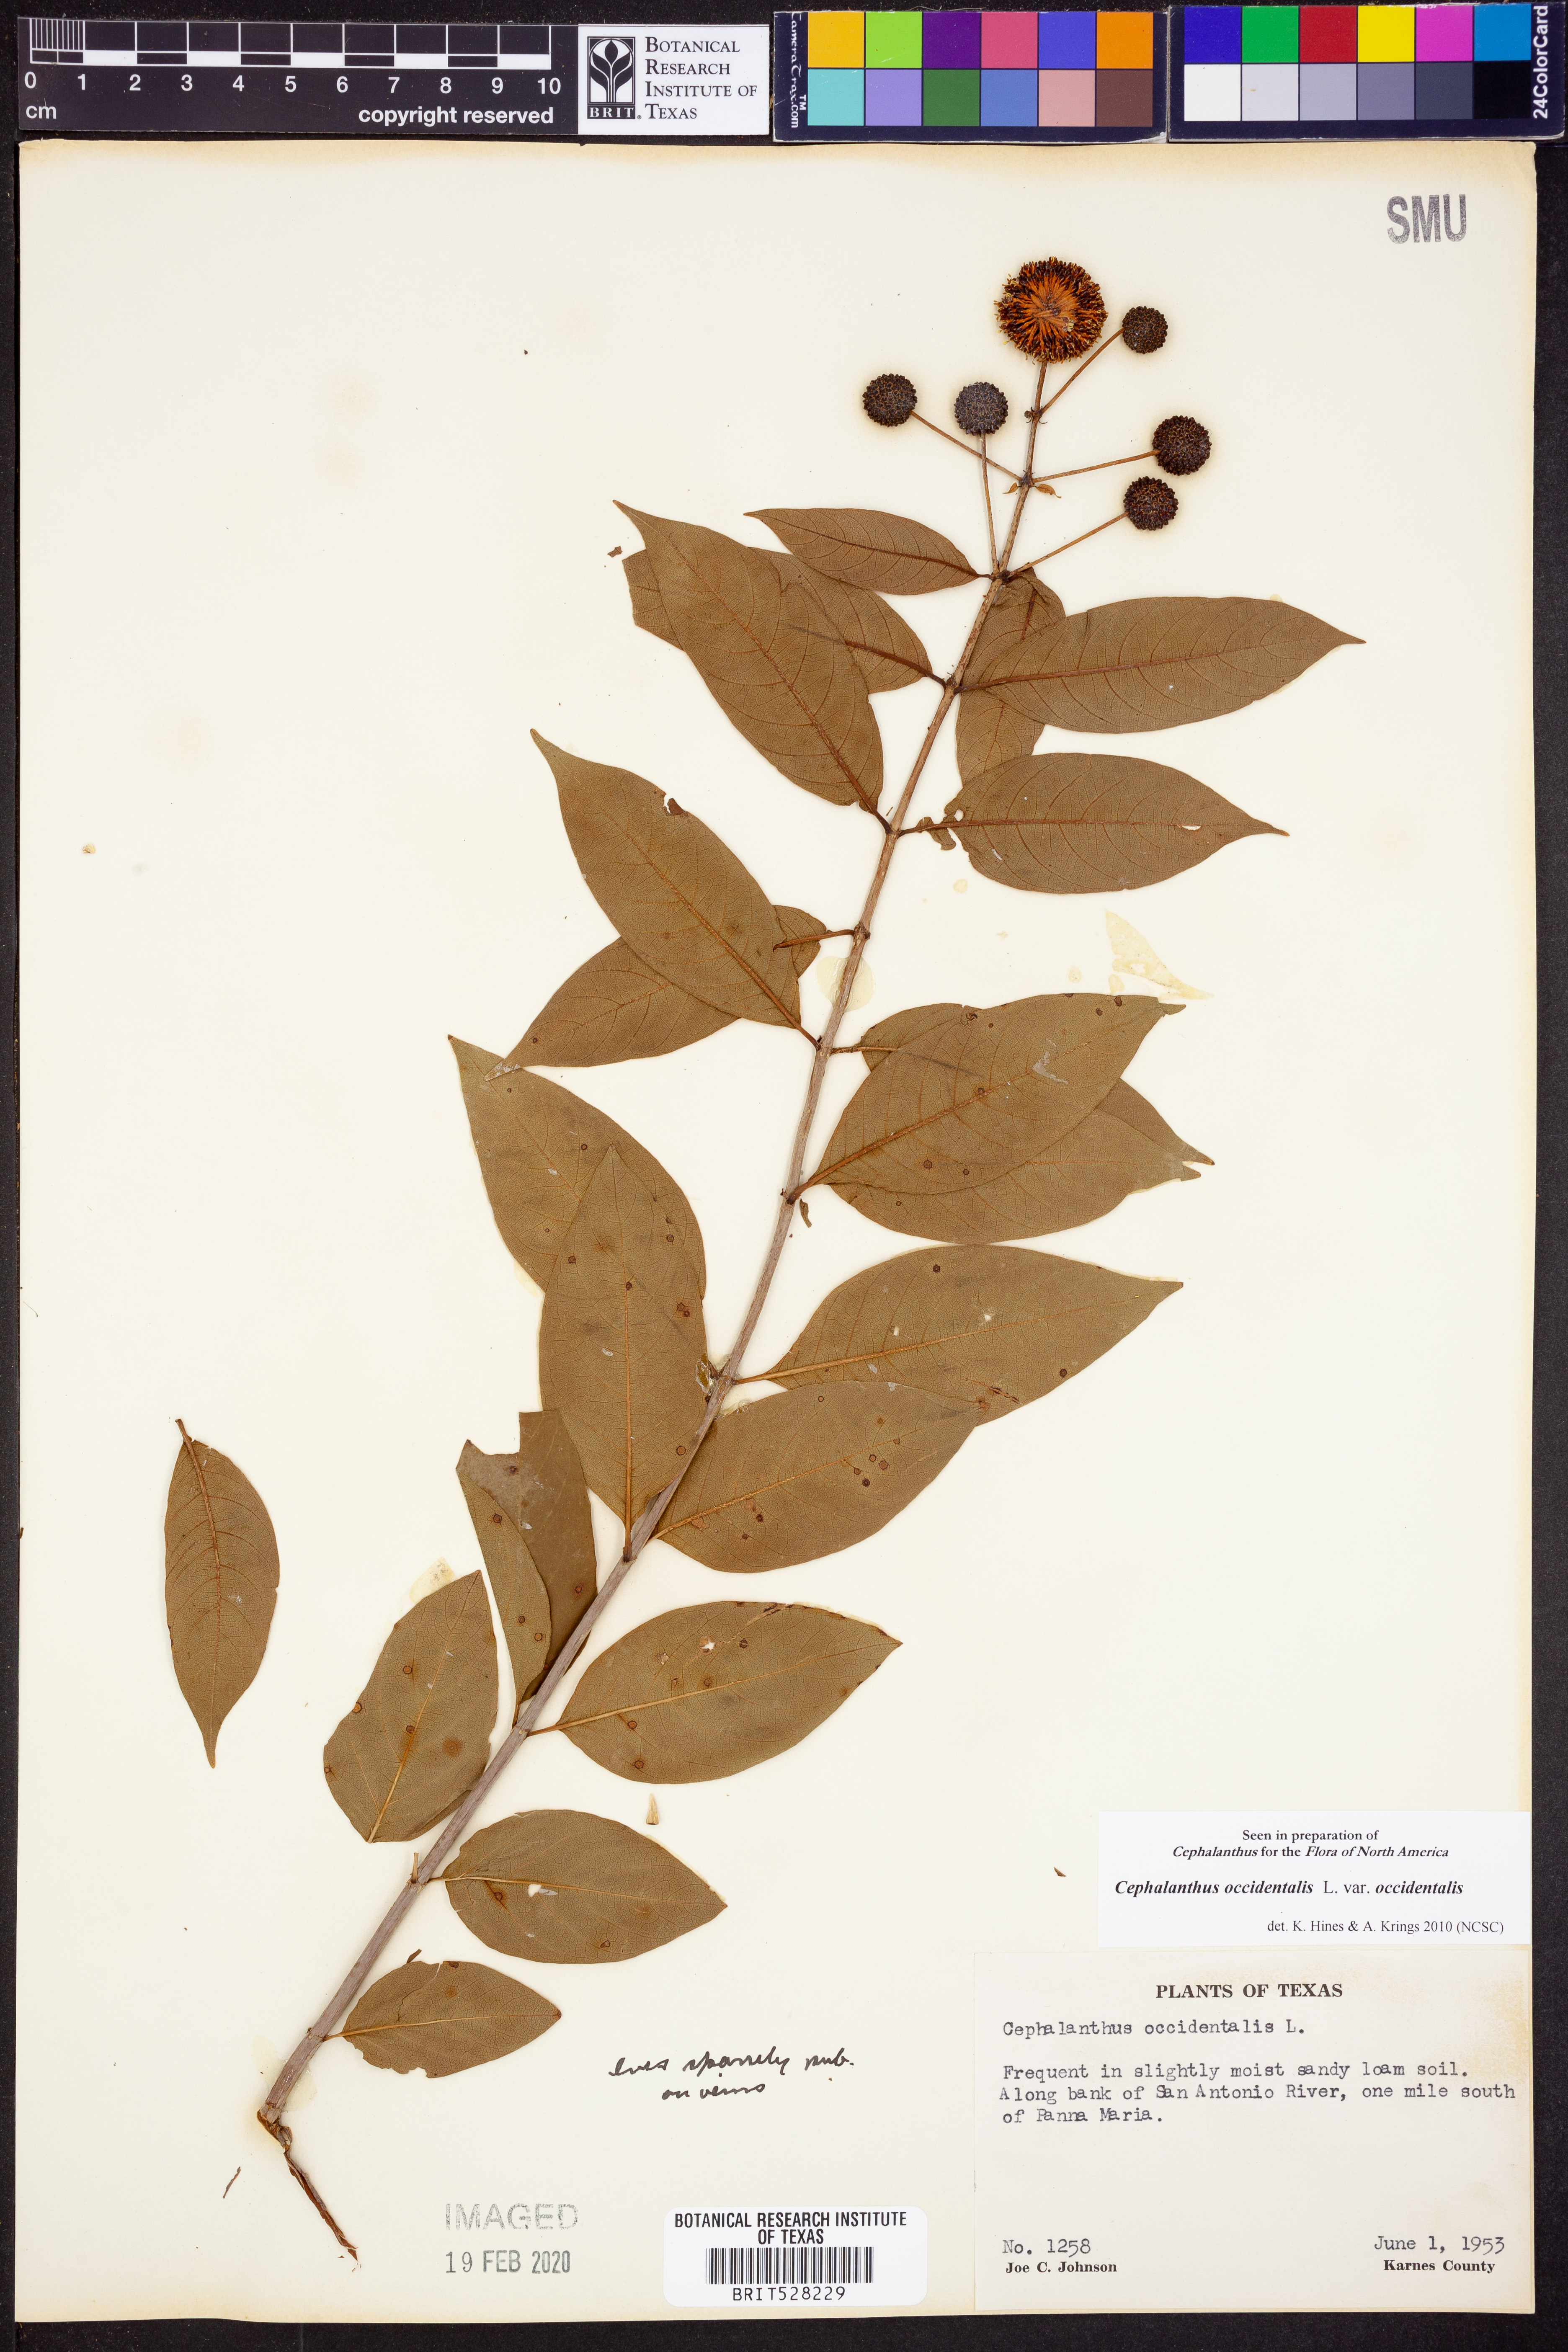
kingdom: Plantae
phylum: Tracheophyta
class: Magnoliopsida
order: Gentianales
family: Rubiaceae
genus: Cephalanthus
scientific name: Cephalanthus occidentalis
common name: Button-willow
